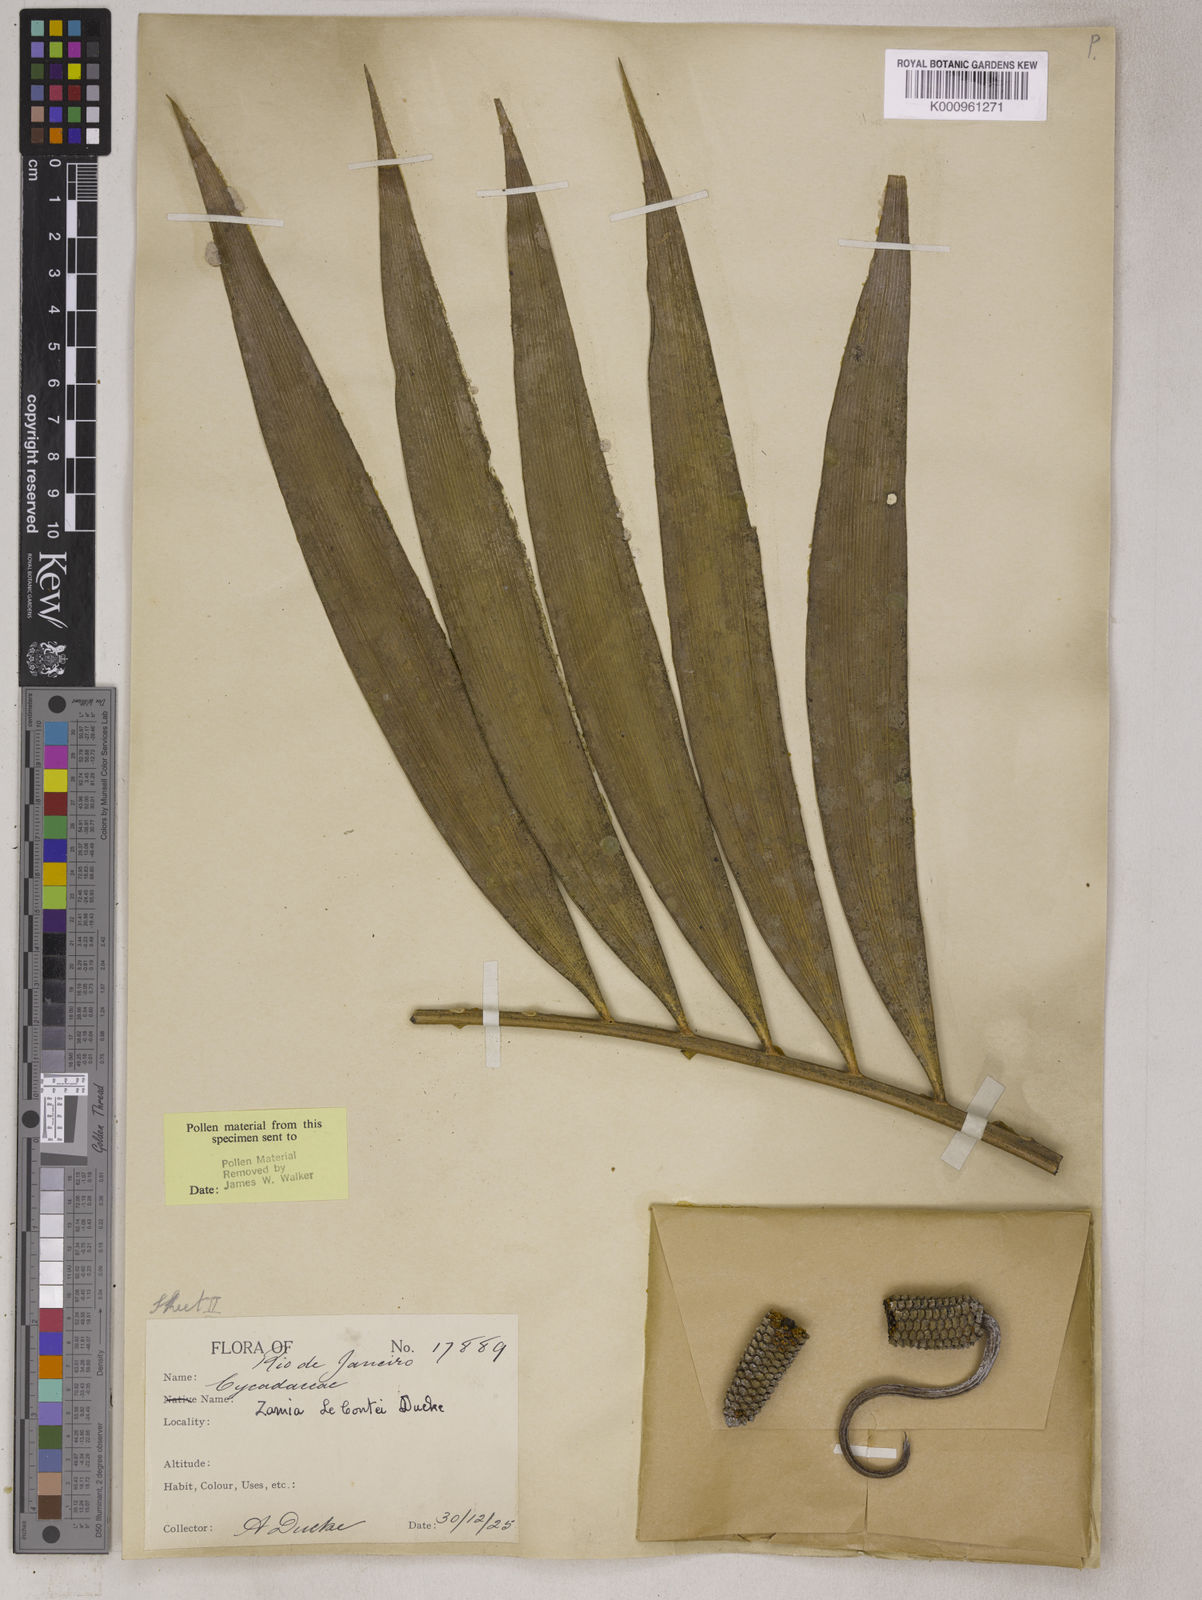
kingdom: Plantae
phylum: Tracheophyta
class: Cycadopsida
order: Cycadales
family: Zamiaceae
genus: Zamia
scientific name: Zamia lecointei
